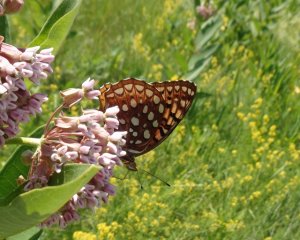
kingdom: Animalia
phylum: Arthropoda
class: Insecta
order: Lepidoptera
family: Nymphalidae
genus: Speyeria
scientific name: Speyeria aphrodite
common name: Aphrodite Fritillary
